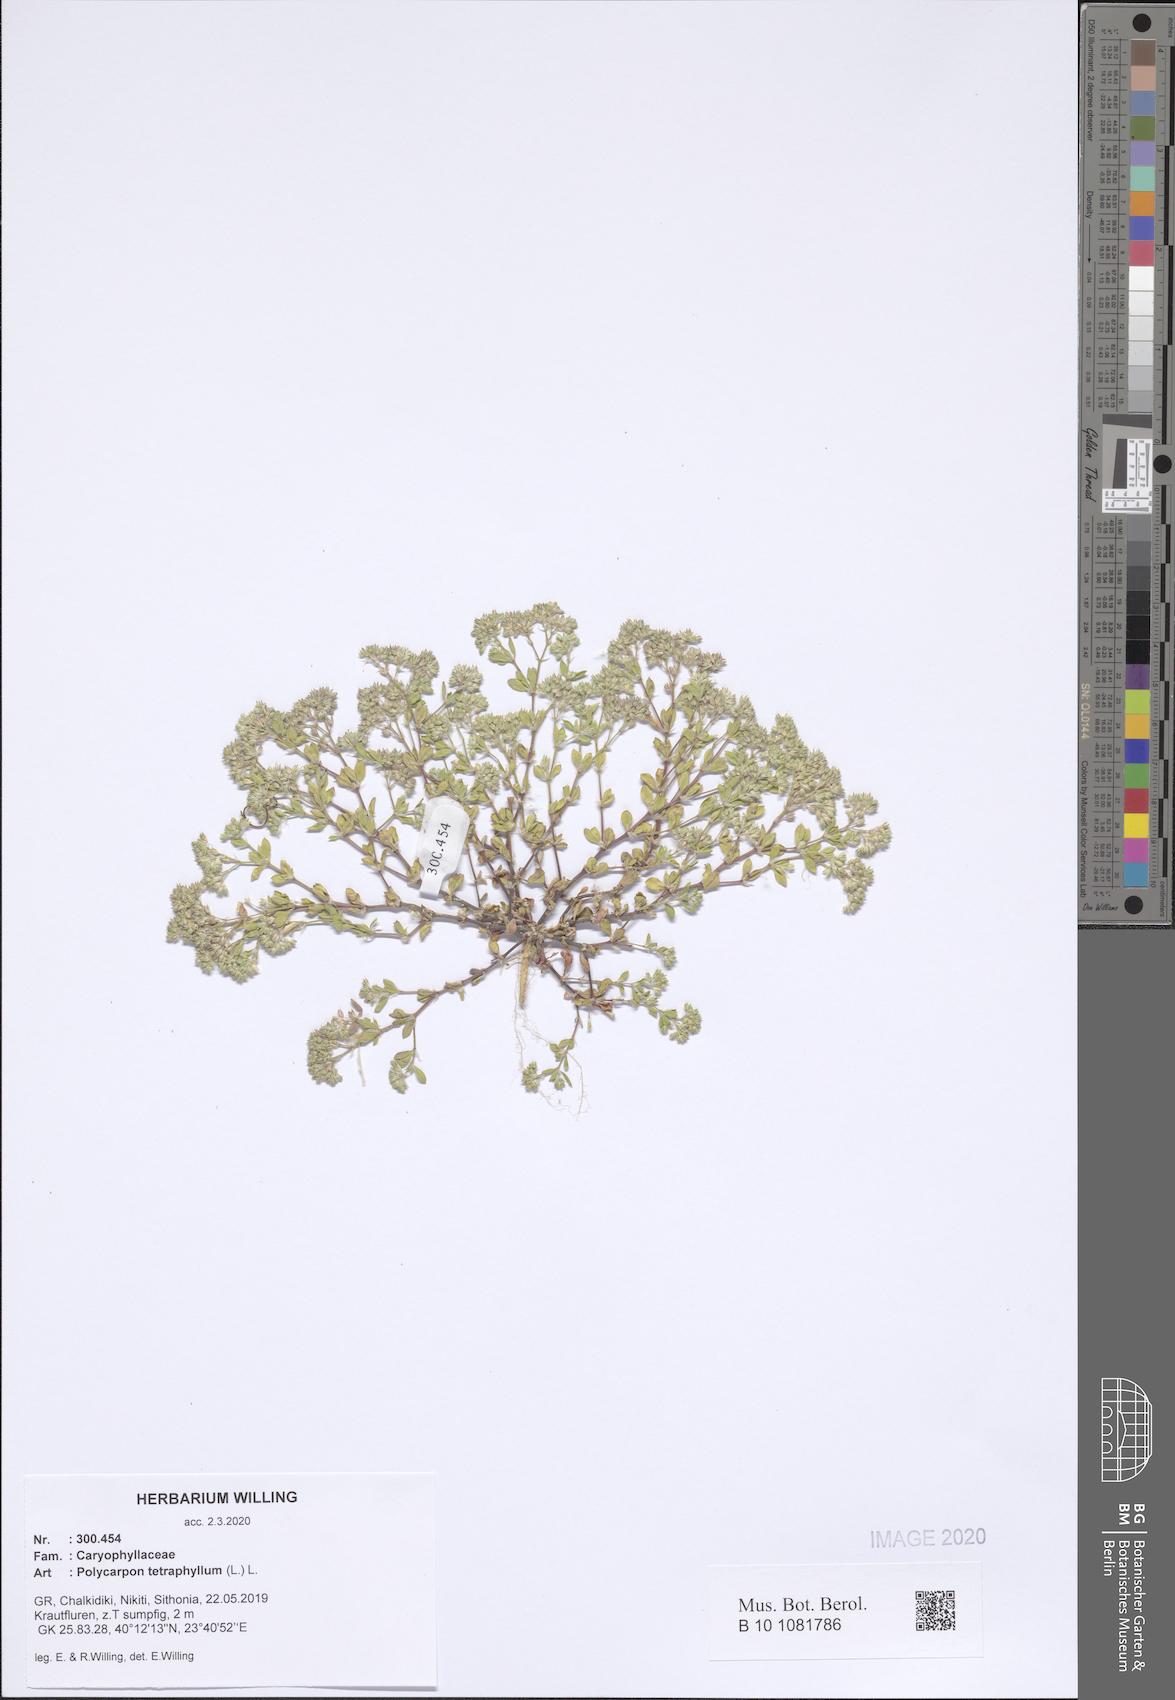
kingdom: Plantae
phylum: Tracheophyta
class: Magnoliopsida
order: Caryophyllales
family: Caryophyllaceae
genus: Polycarpon
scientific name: Polycarpon tetraphyllum
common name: Four-leaved all-seed
